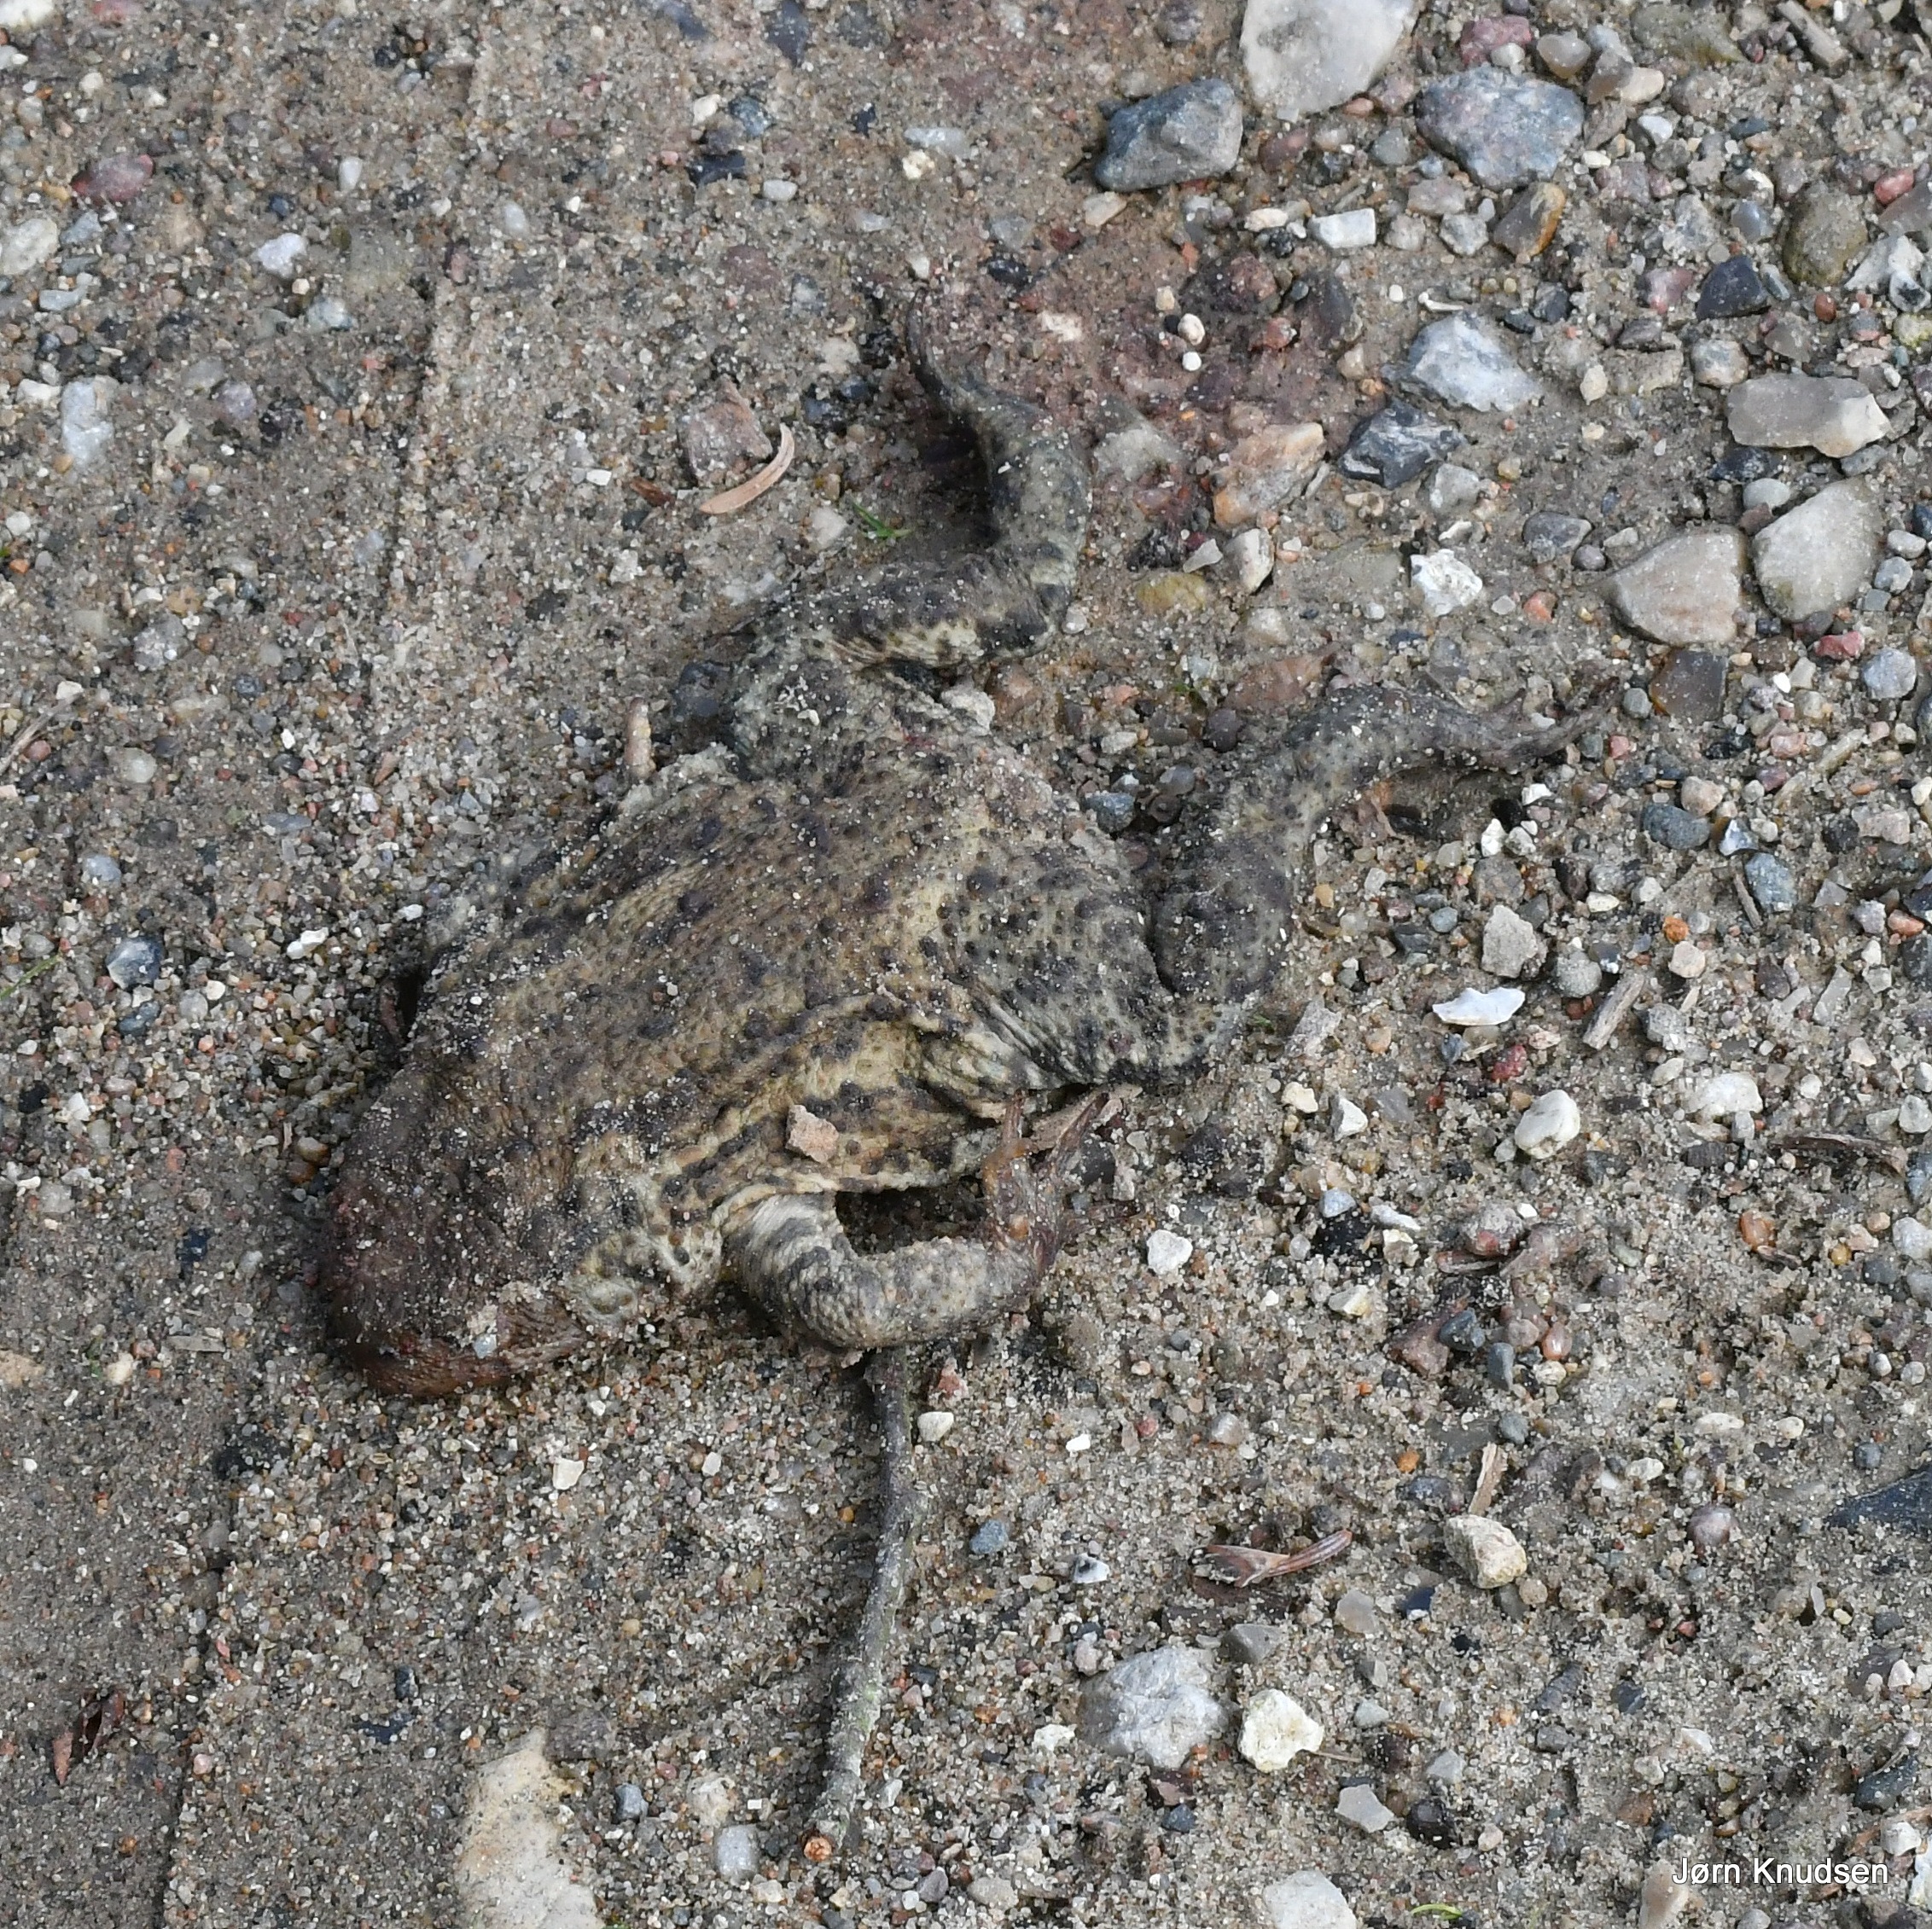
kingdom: Animalia
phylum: Chordata
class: Amphibia
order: Anura
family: Bufonidae
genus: Bufo
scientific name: Bufo bufo
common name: Skrubtudse
